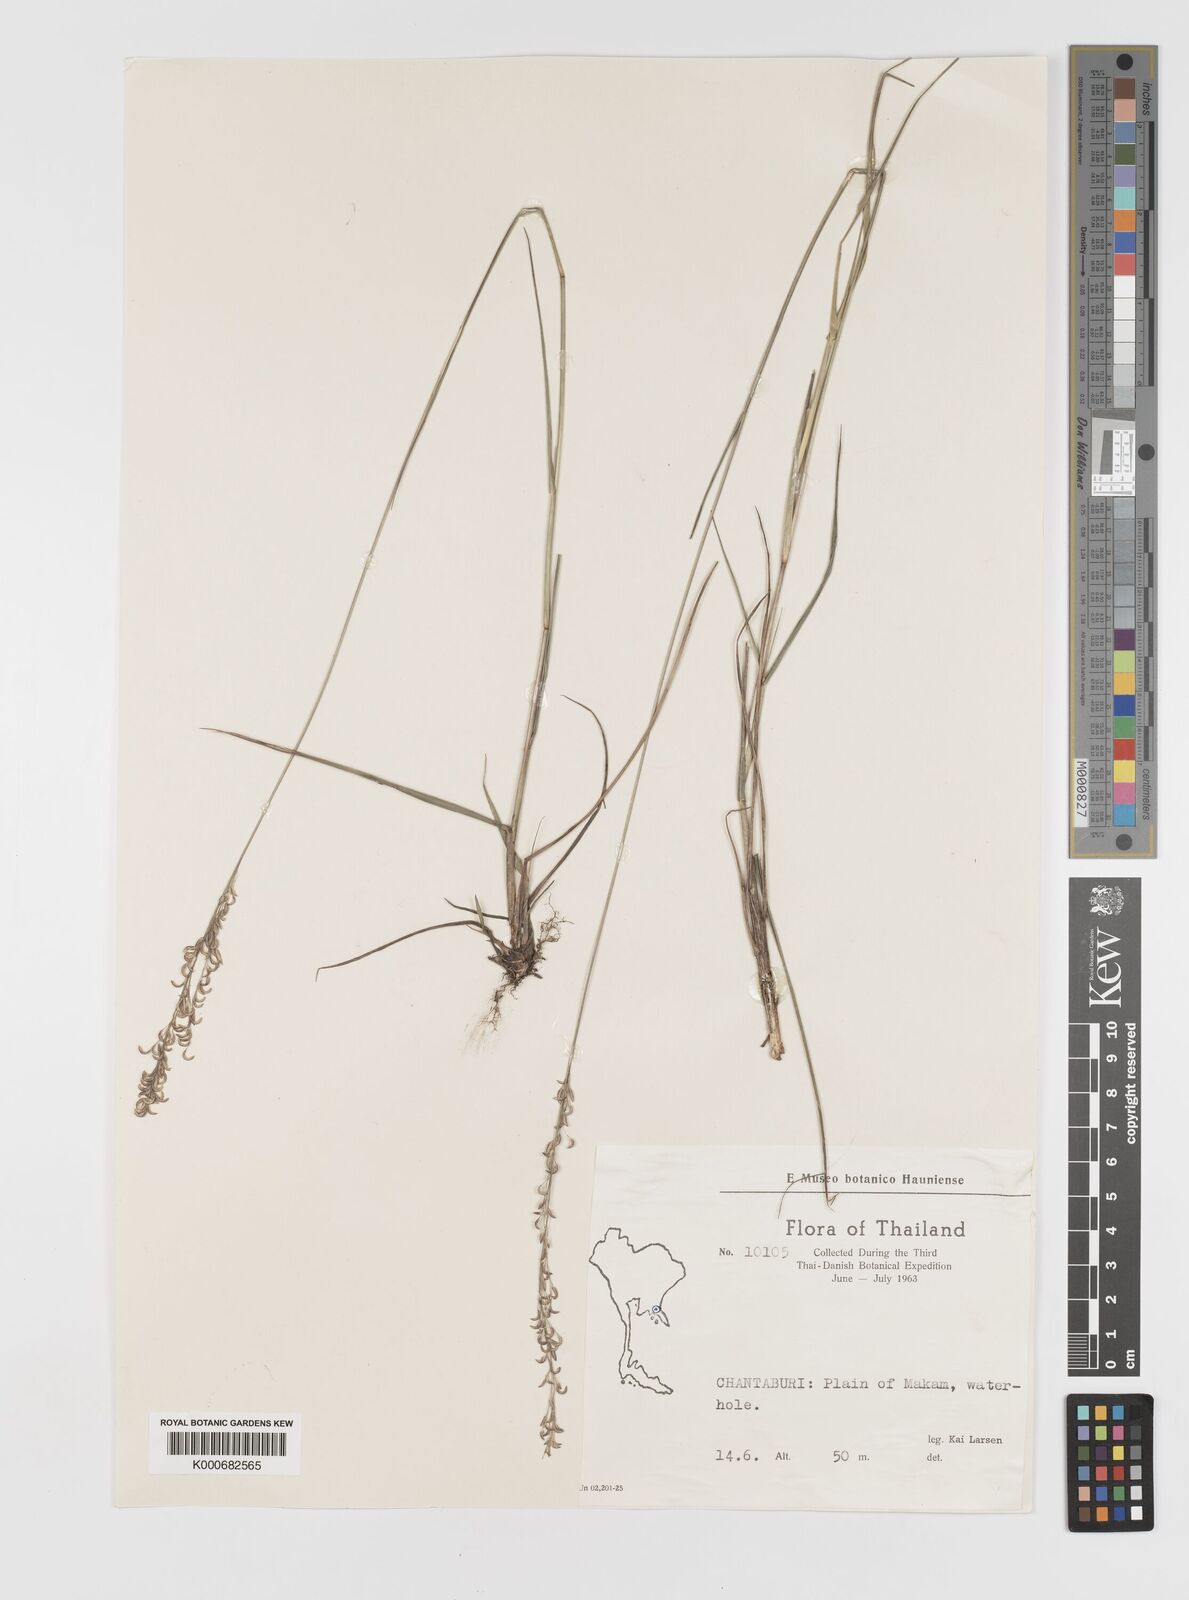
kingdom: Plantae
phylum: Tracheophyta
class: Liliopsida
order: Poales
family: Poaceae
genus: Eragrostis
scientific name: Eragrostis
